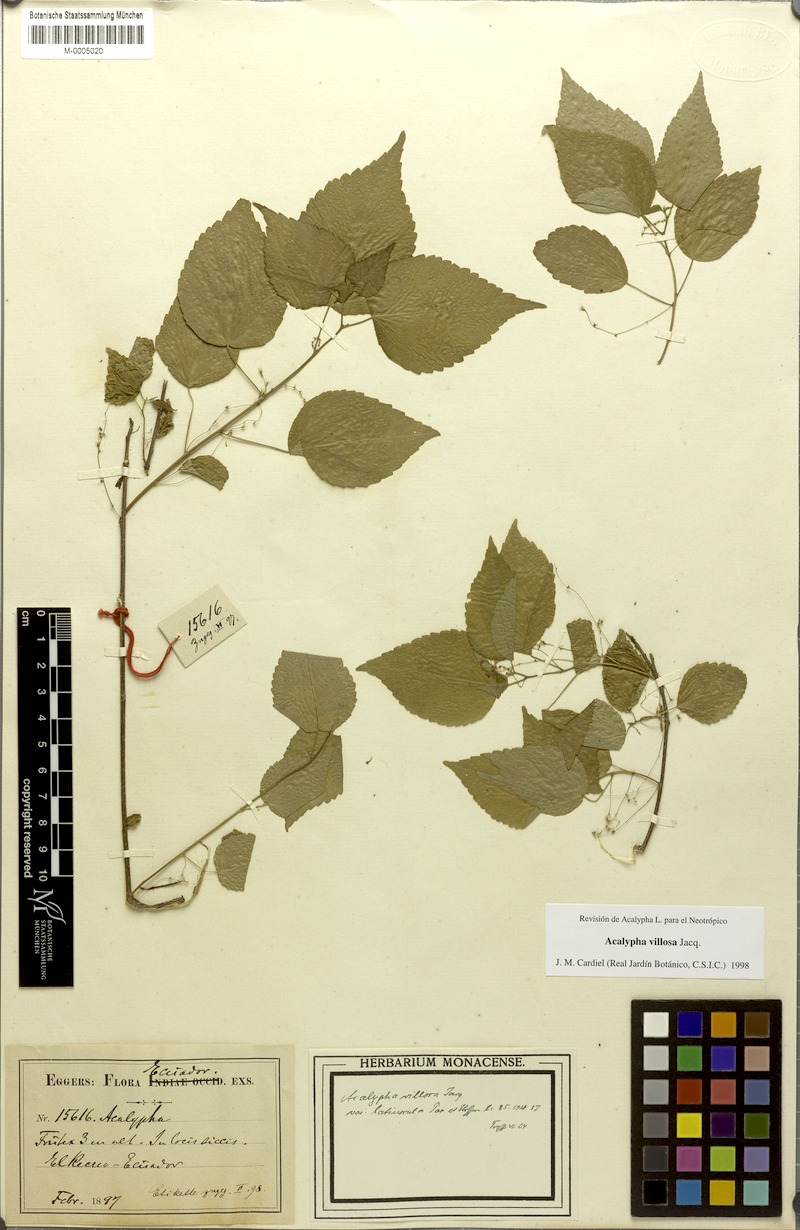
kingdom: Plantae
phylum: Tracheophyta
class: Magnoliopsida
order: Malpighiales
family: Euphorbiaceae
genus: Acalypha
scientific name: Acalypha villosa
